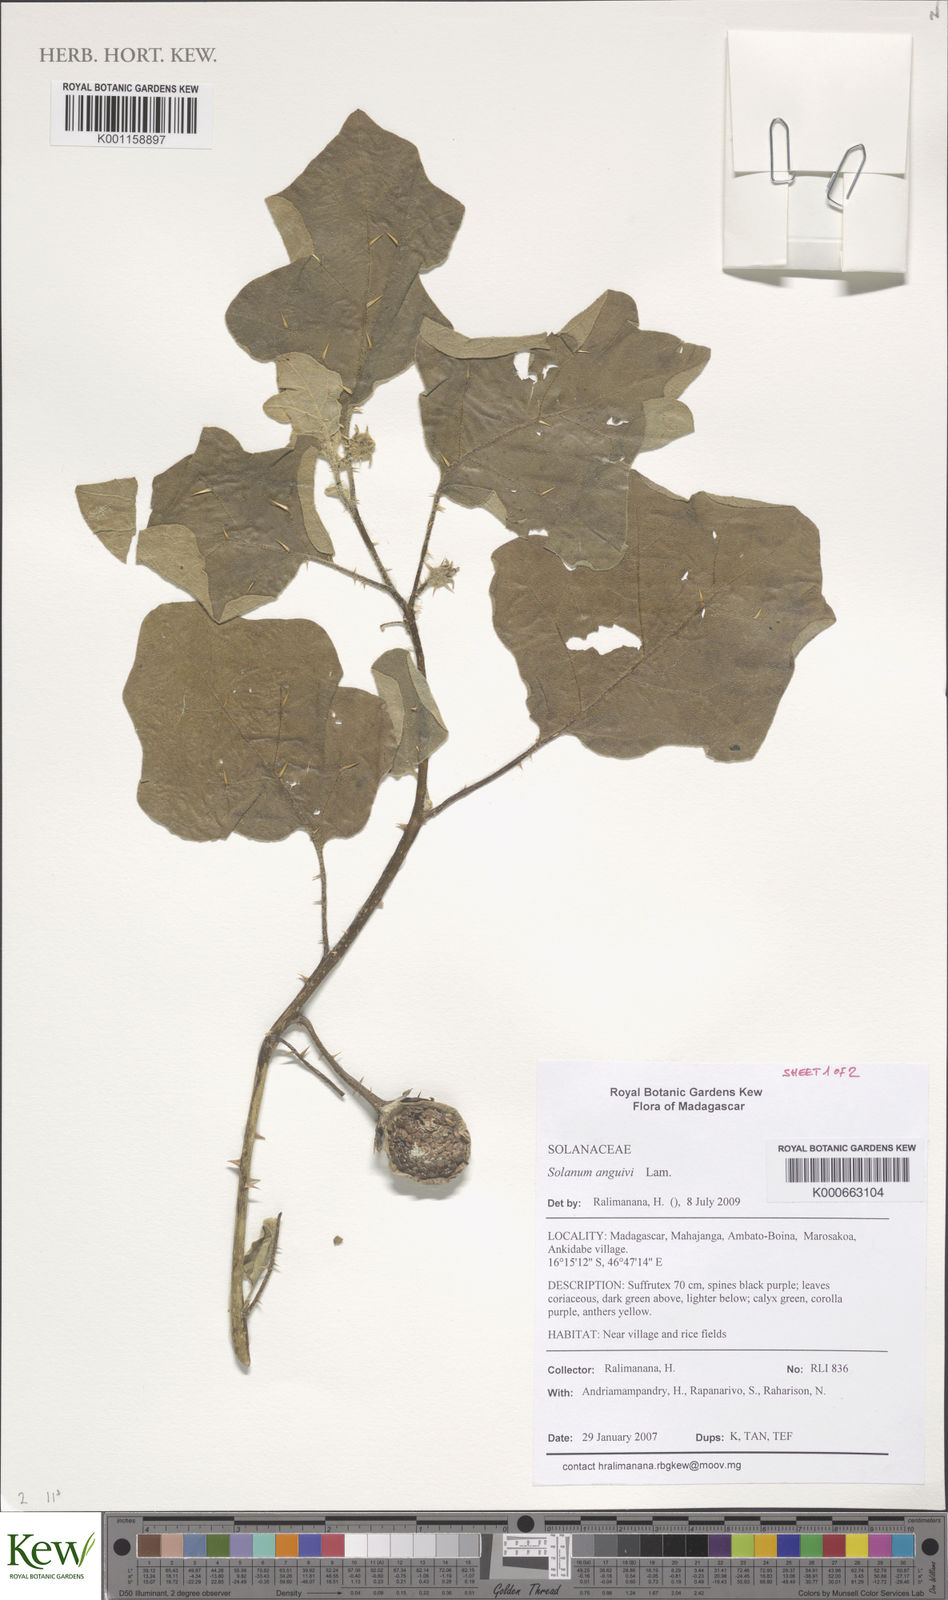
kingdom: Plantae
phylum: Tracheophyta
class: Magnoliopsida
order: Solanales
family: Solanaceae
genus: Solanum
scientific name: Solanum anguivi
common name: Forest bitterberry
